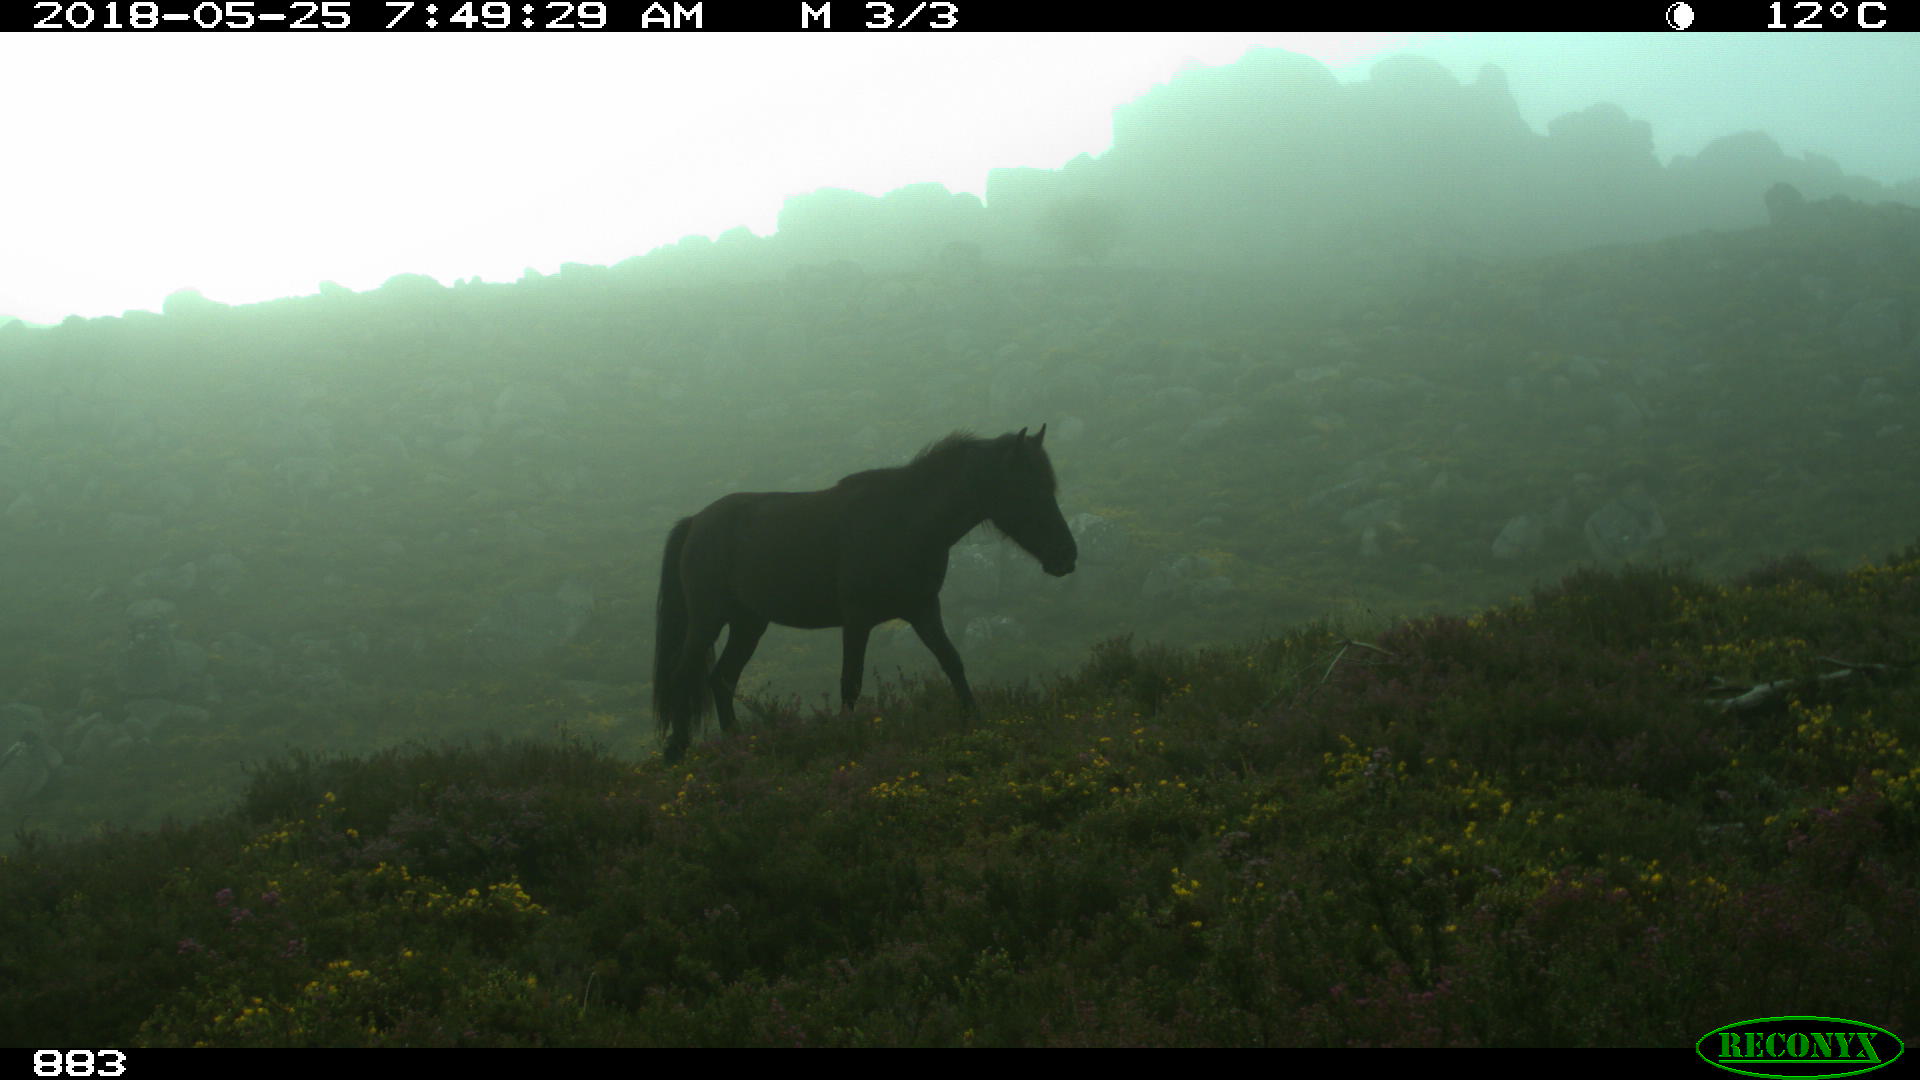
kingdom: Animalia
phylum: Chordata
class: Mammalia
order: Perissodactyla
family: Equidae
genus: Equus
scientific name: Equus caballus
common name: Horse
